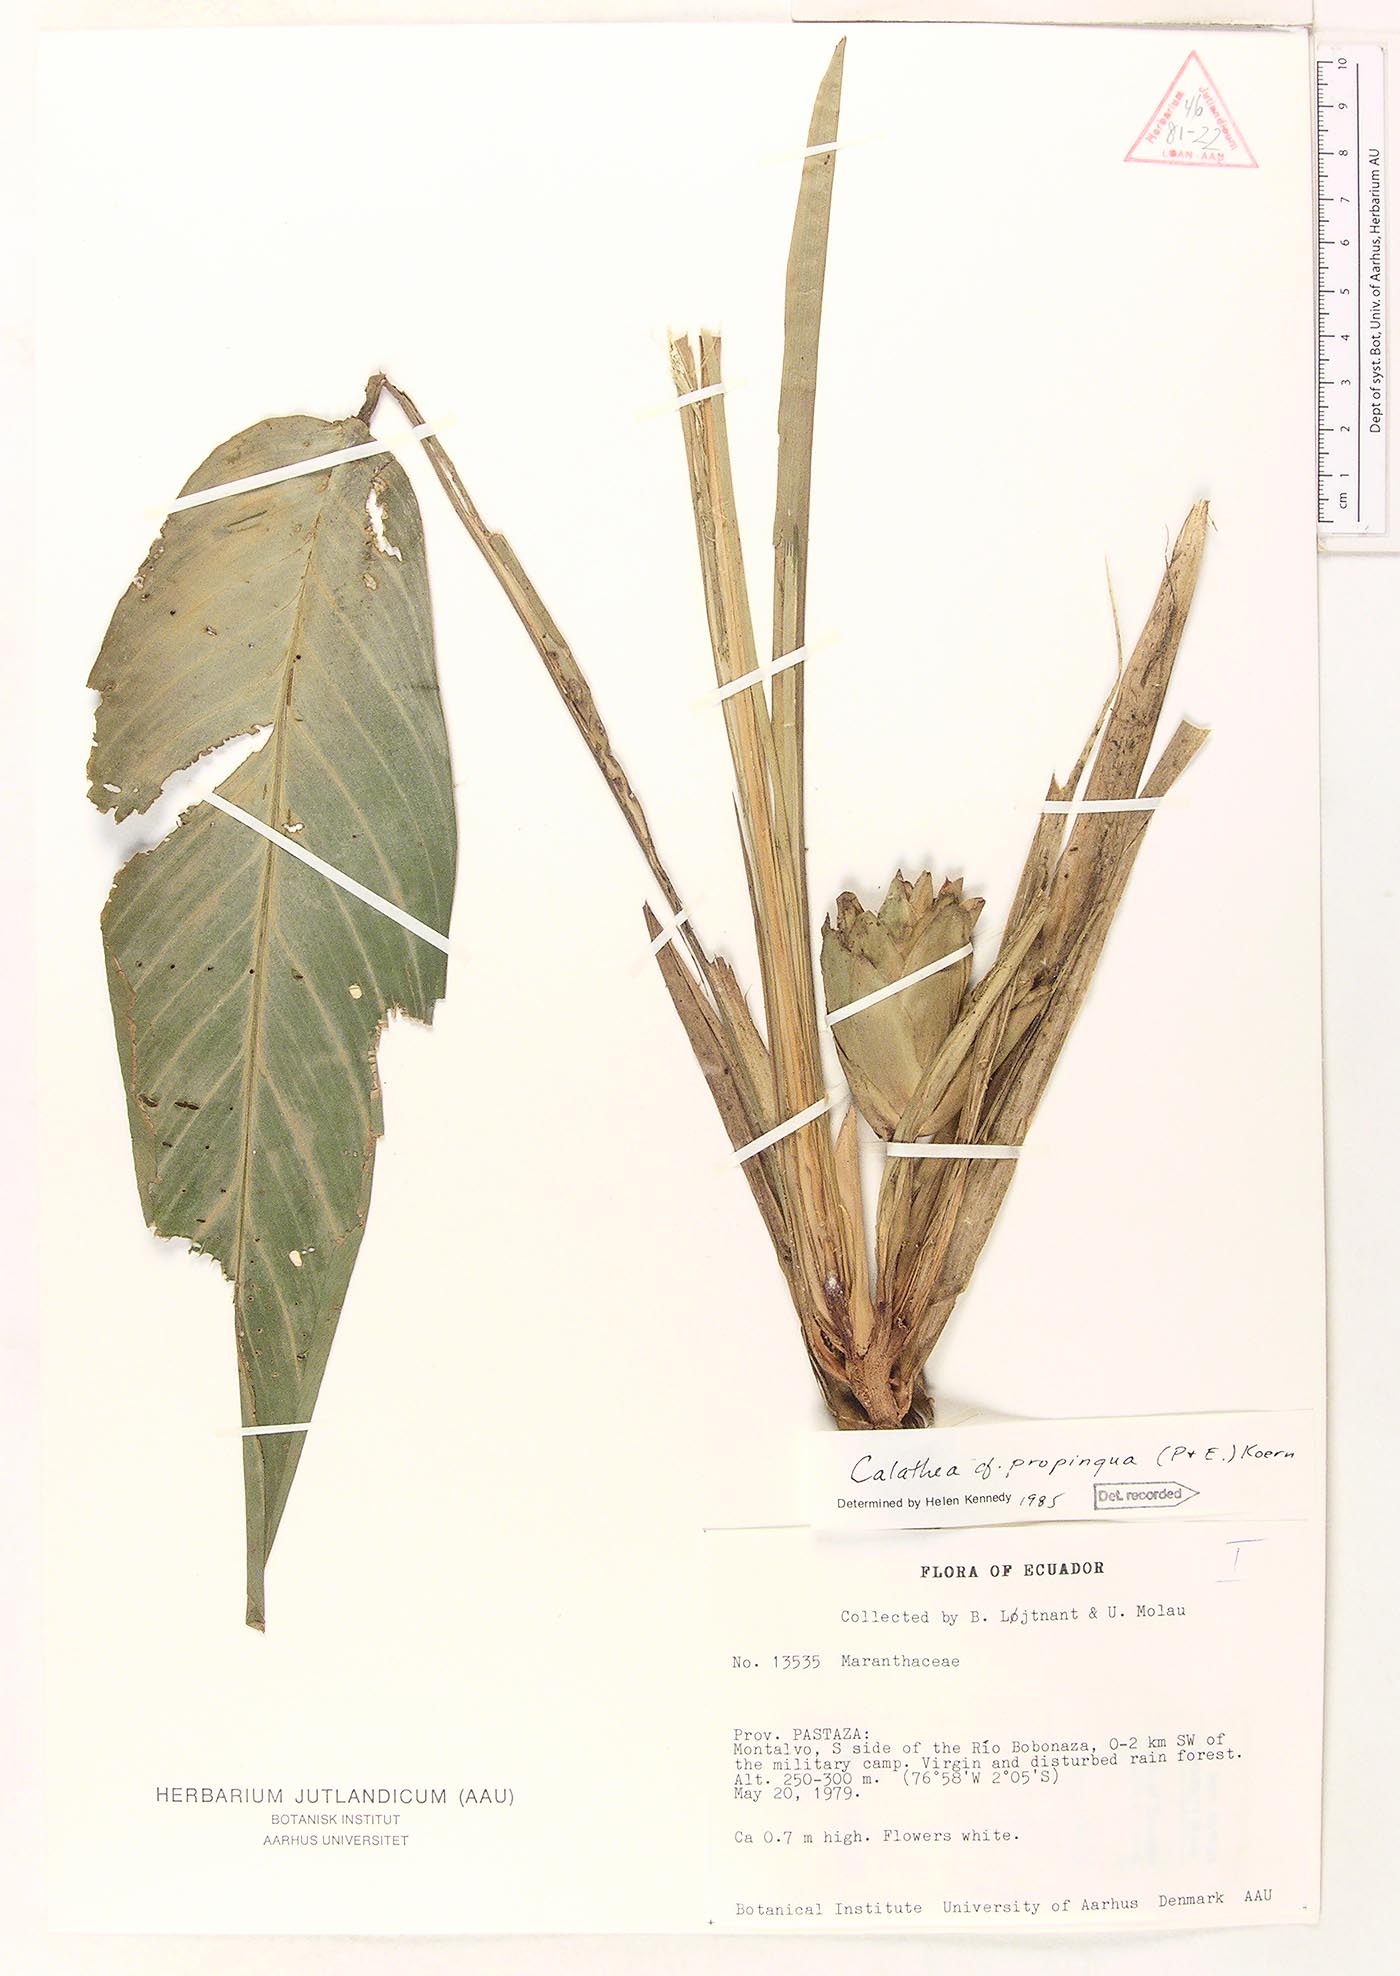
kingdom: Plantae
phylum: Tracheophyta
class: Liliopsida
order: Zingiberales
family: Marantaceae
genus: Goeppertia
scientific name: Goeppertia propinqua
